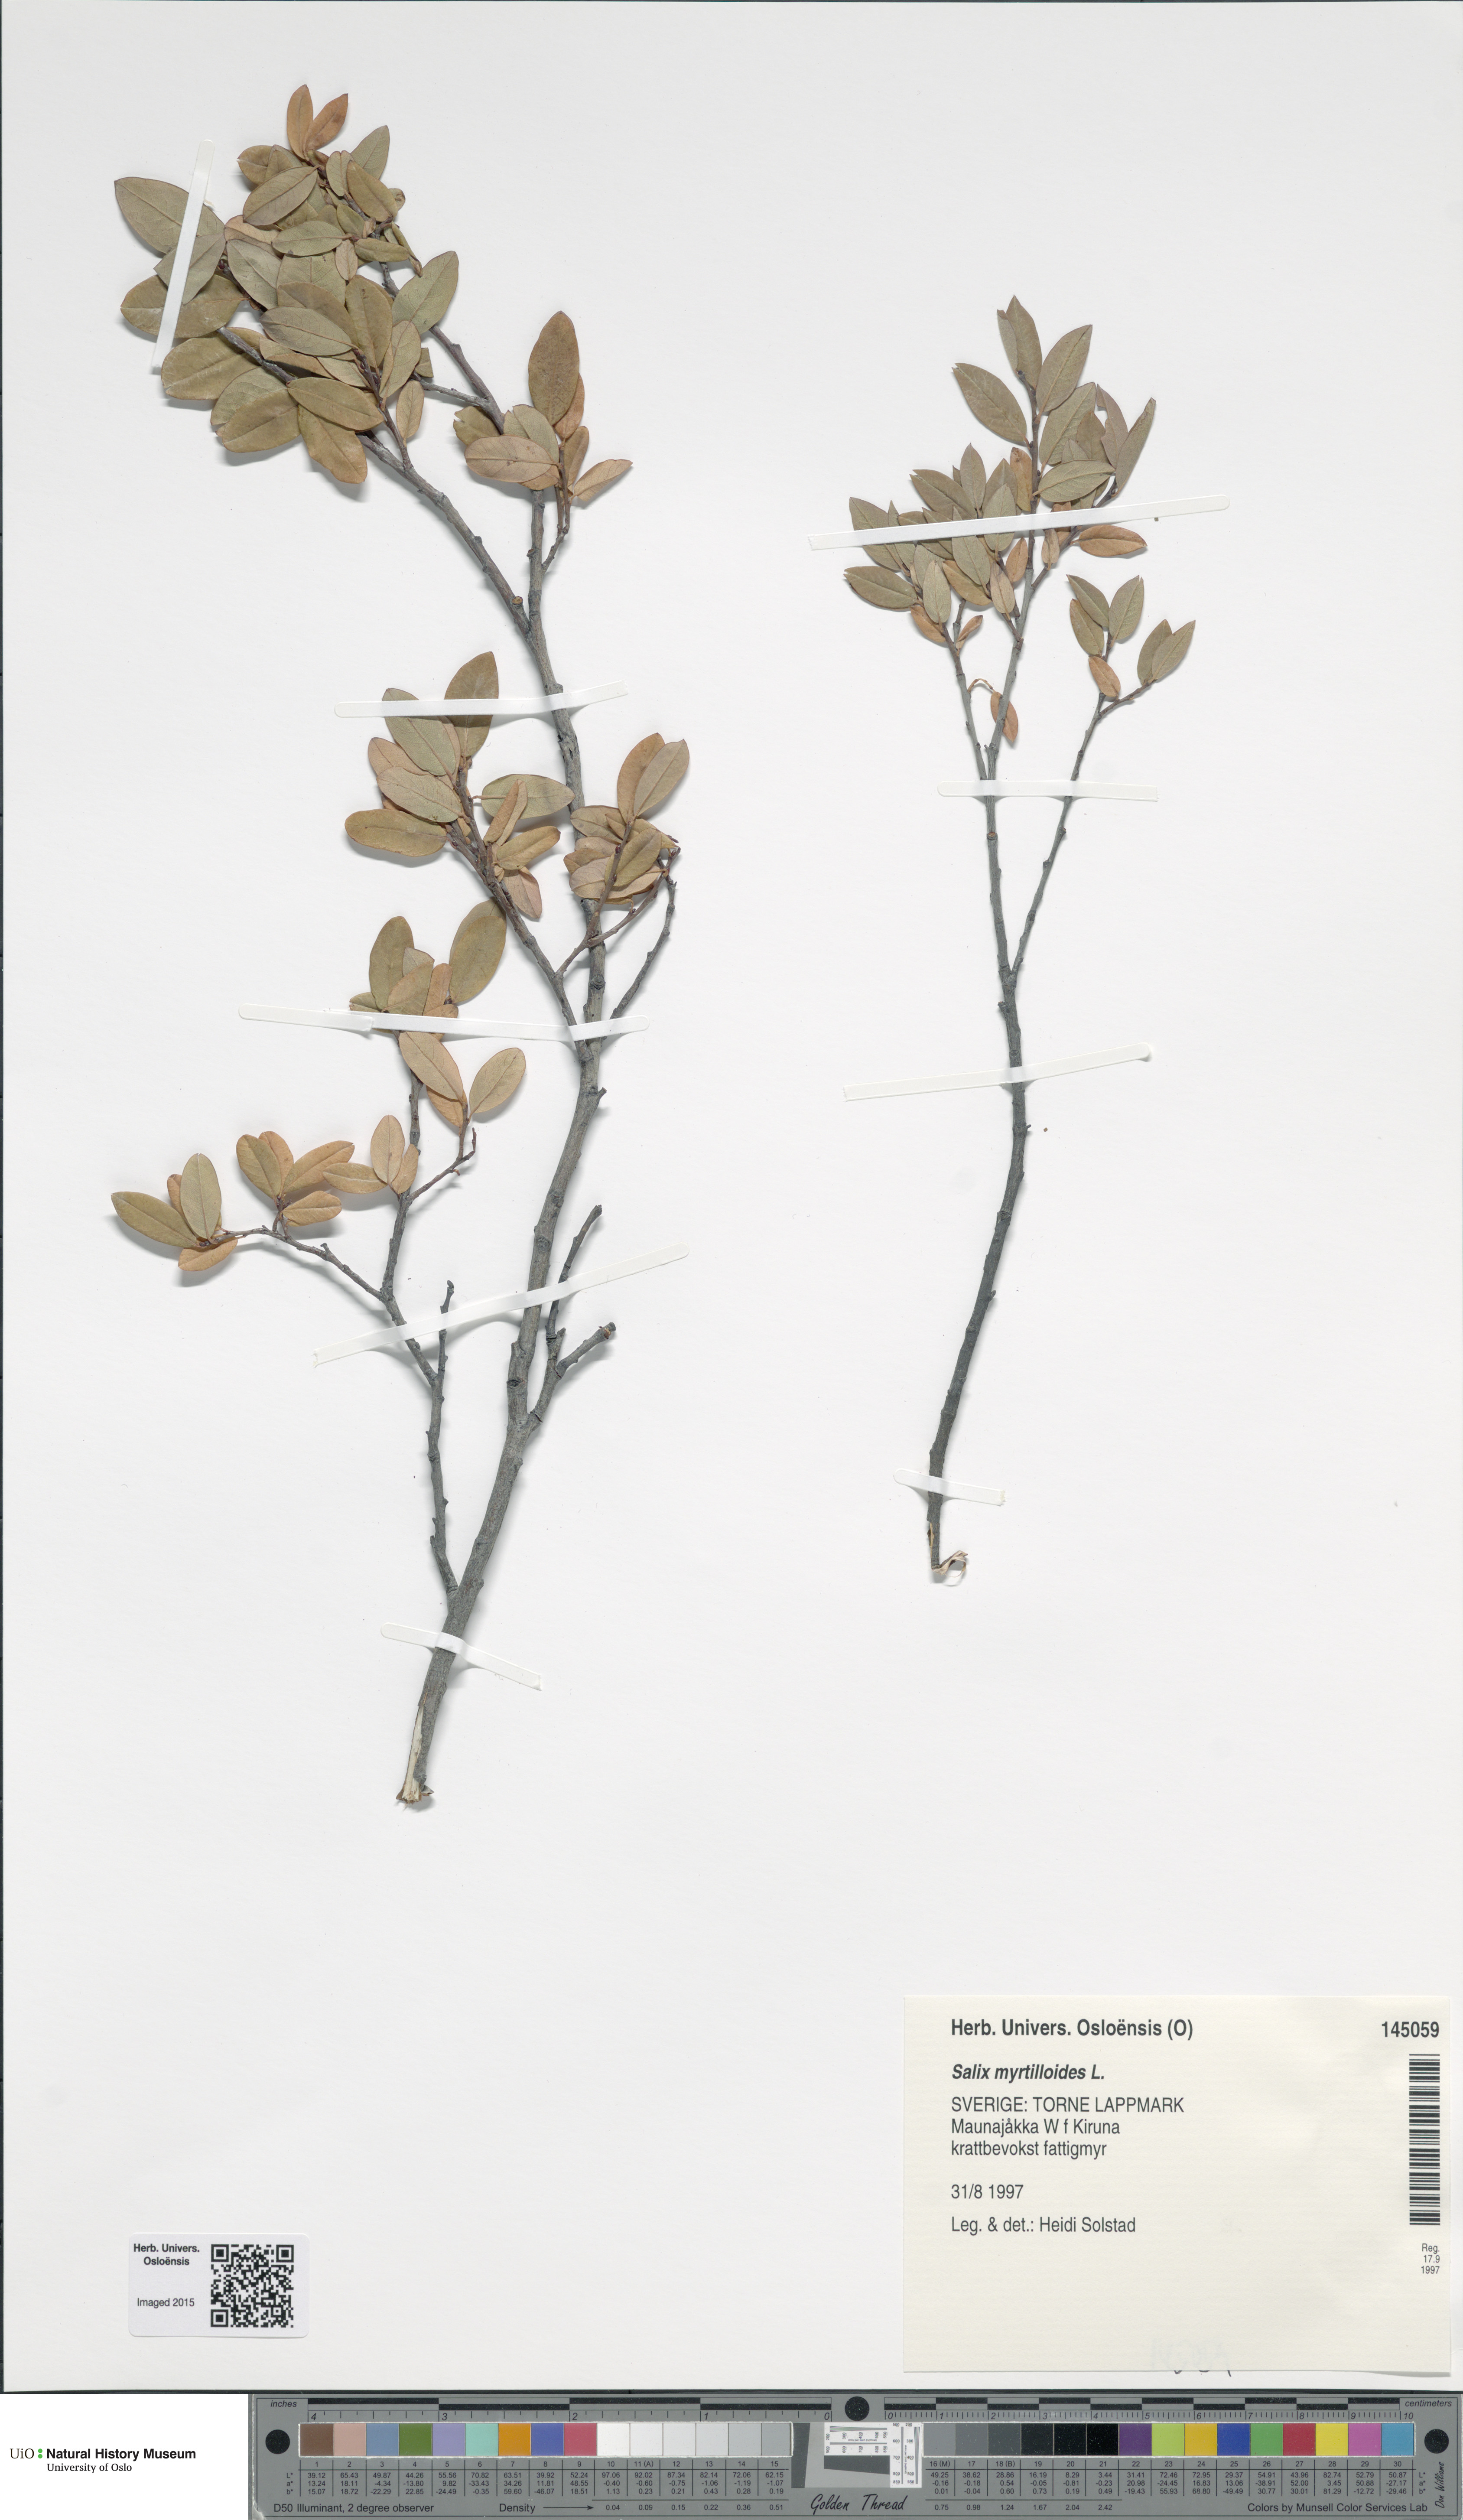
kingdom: Plantae
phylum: Tracheophyta
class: Magnoliopsida
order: Malpighiales
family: Salicaceae
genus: Salix
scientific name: Salix myrtilloides
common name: Myrtle-leaved willow
